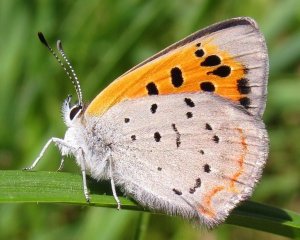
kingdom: Animalia
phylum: Arthropoda
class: Insecta
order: Lepidoptera
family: Lycaenidae
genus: Lycaena
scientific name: Lycaena phlaeas
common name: American Copper
